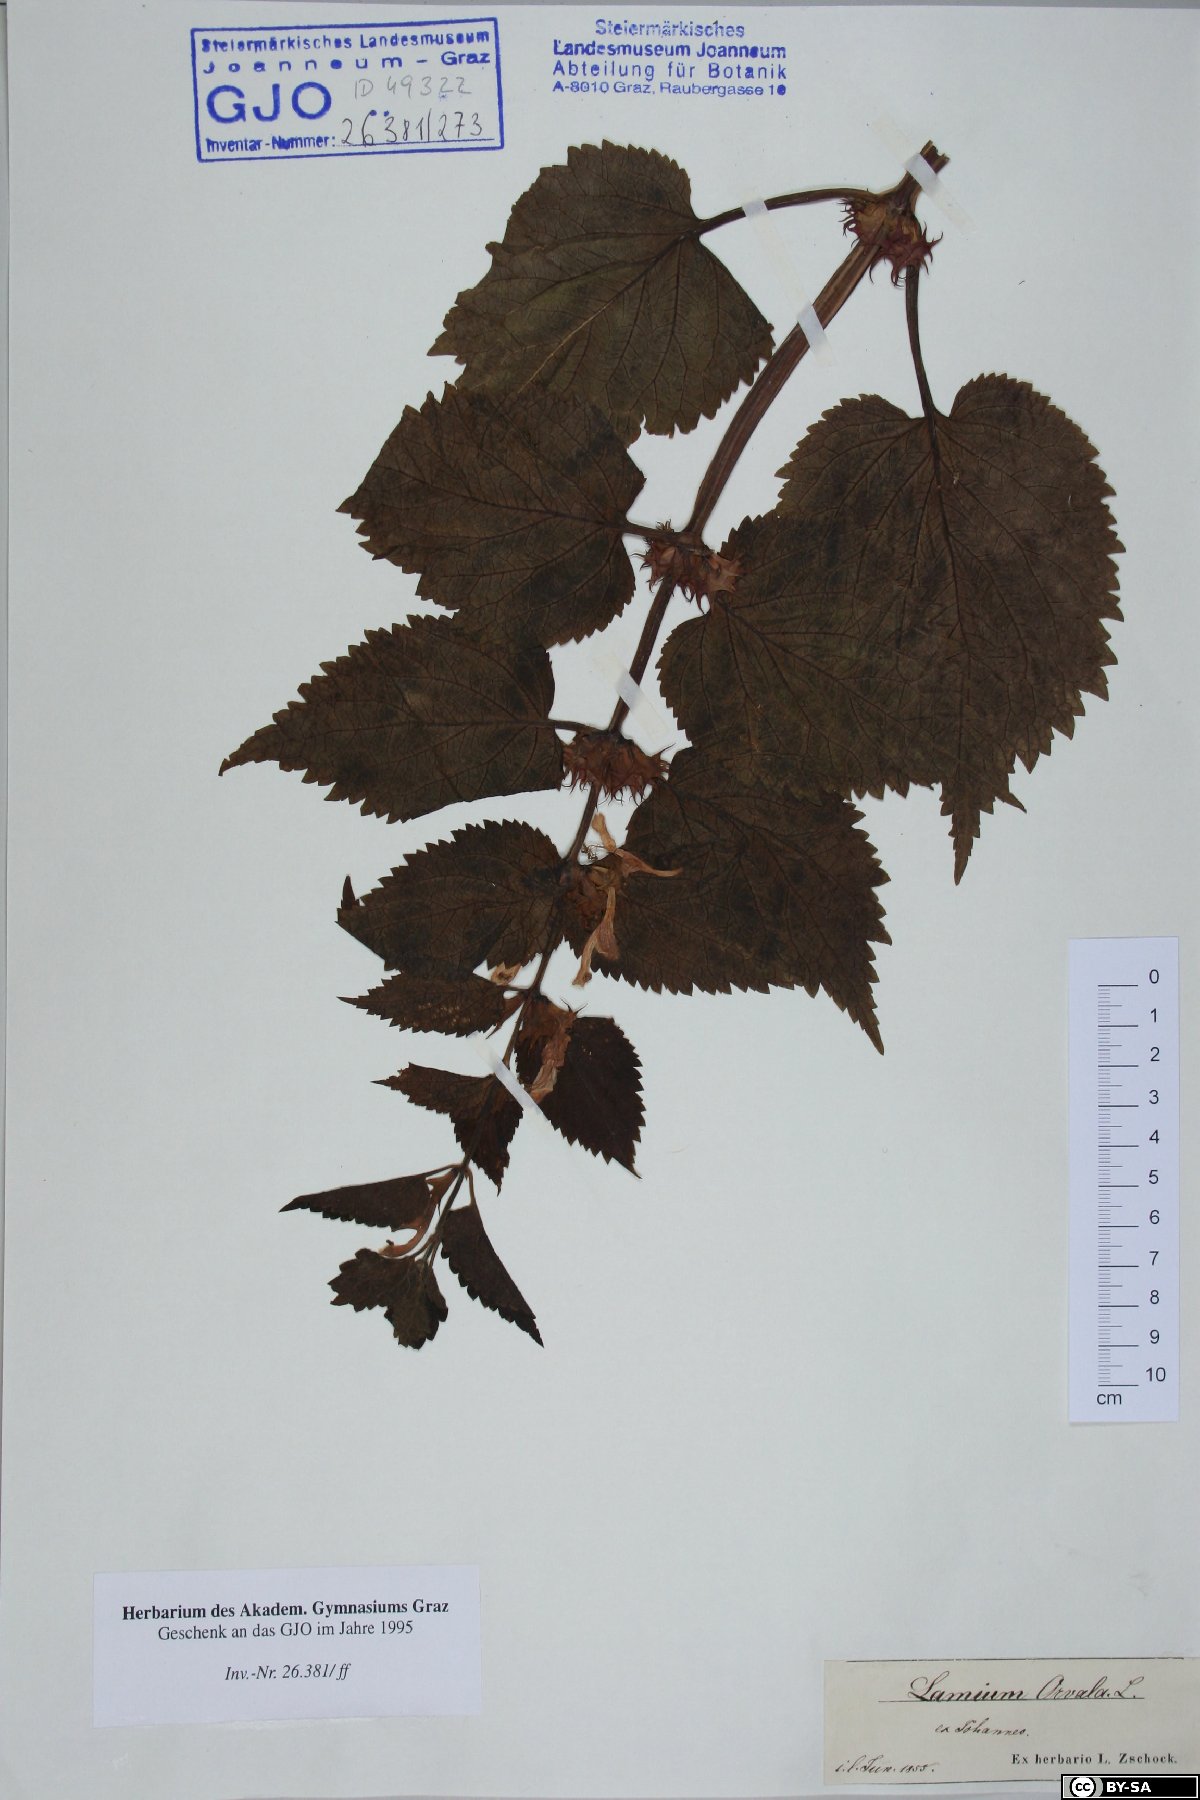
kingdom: Plantae
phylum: Tracheophyta
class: Magnoliopsida
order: Lamiales
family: Lamiaceae
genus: Lamium
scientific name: Lamium orvala
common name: Balm-leaved archangel
